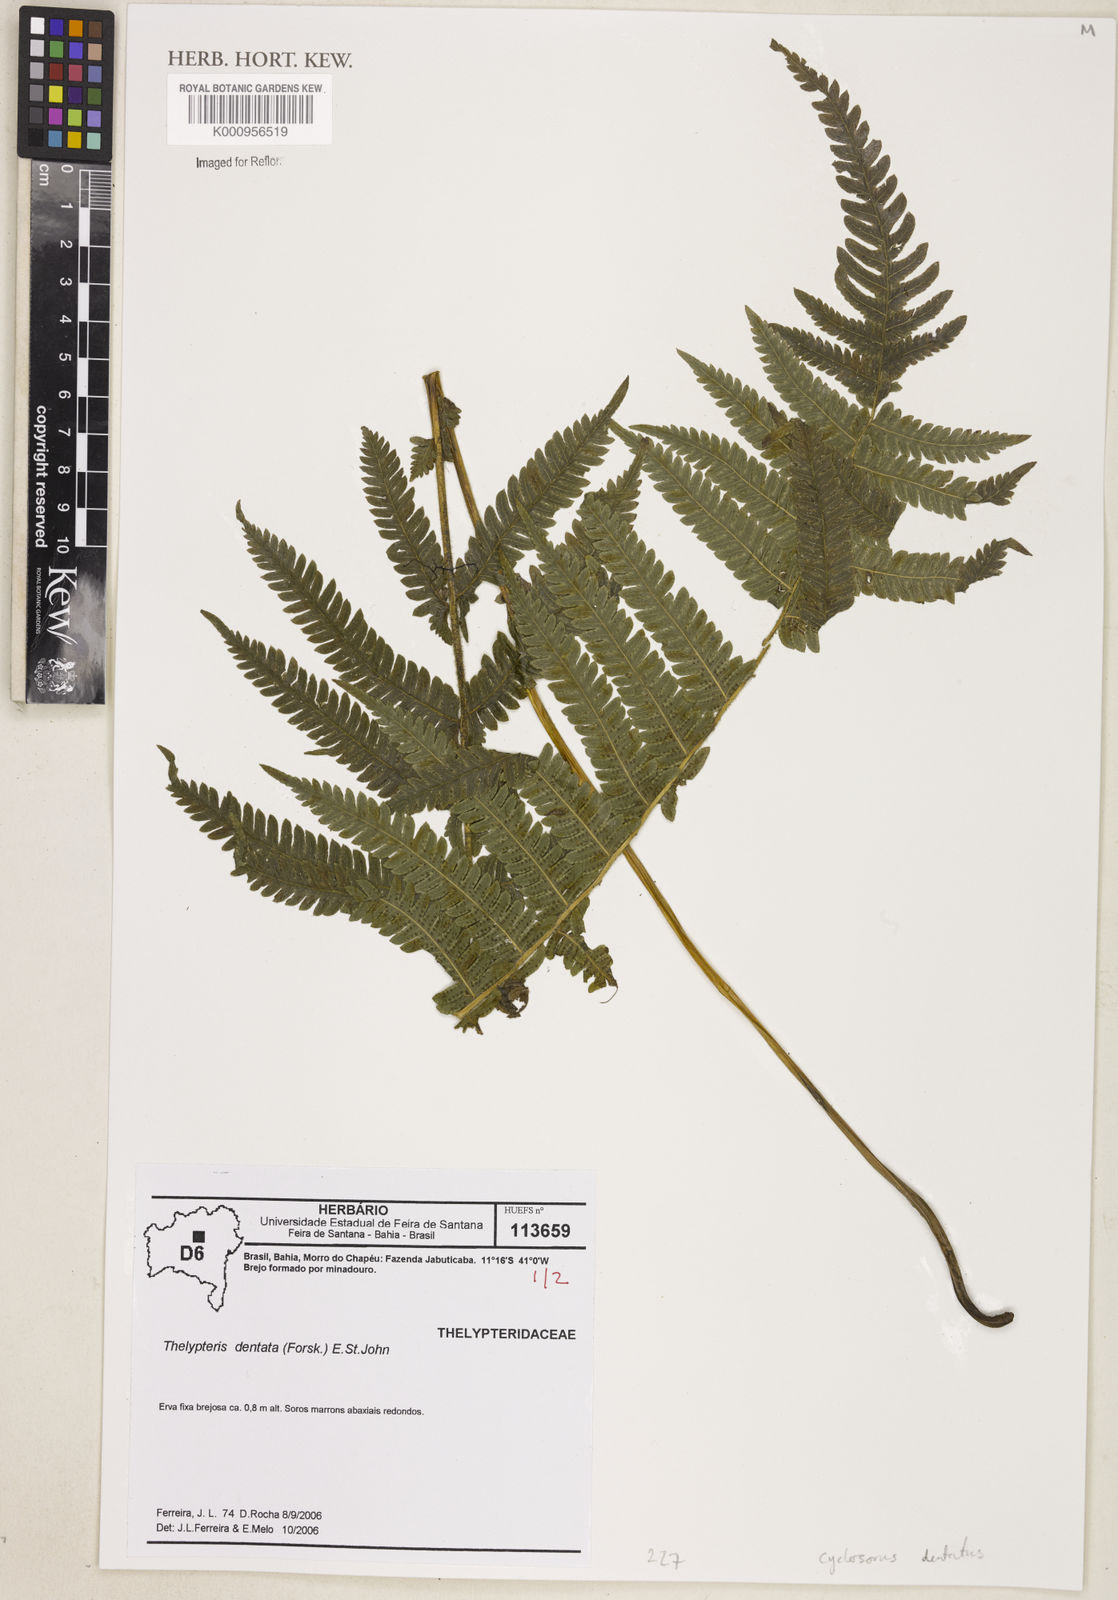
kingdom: Plantae
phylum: Tracheophyta
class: Polypodiopsida
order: Polypodiales
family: Thelypteridaceae
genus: Christella
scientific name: Christella dentata
